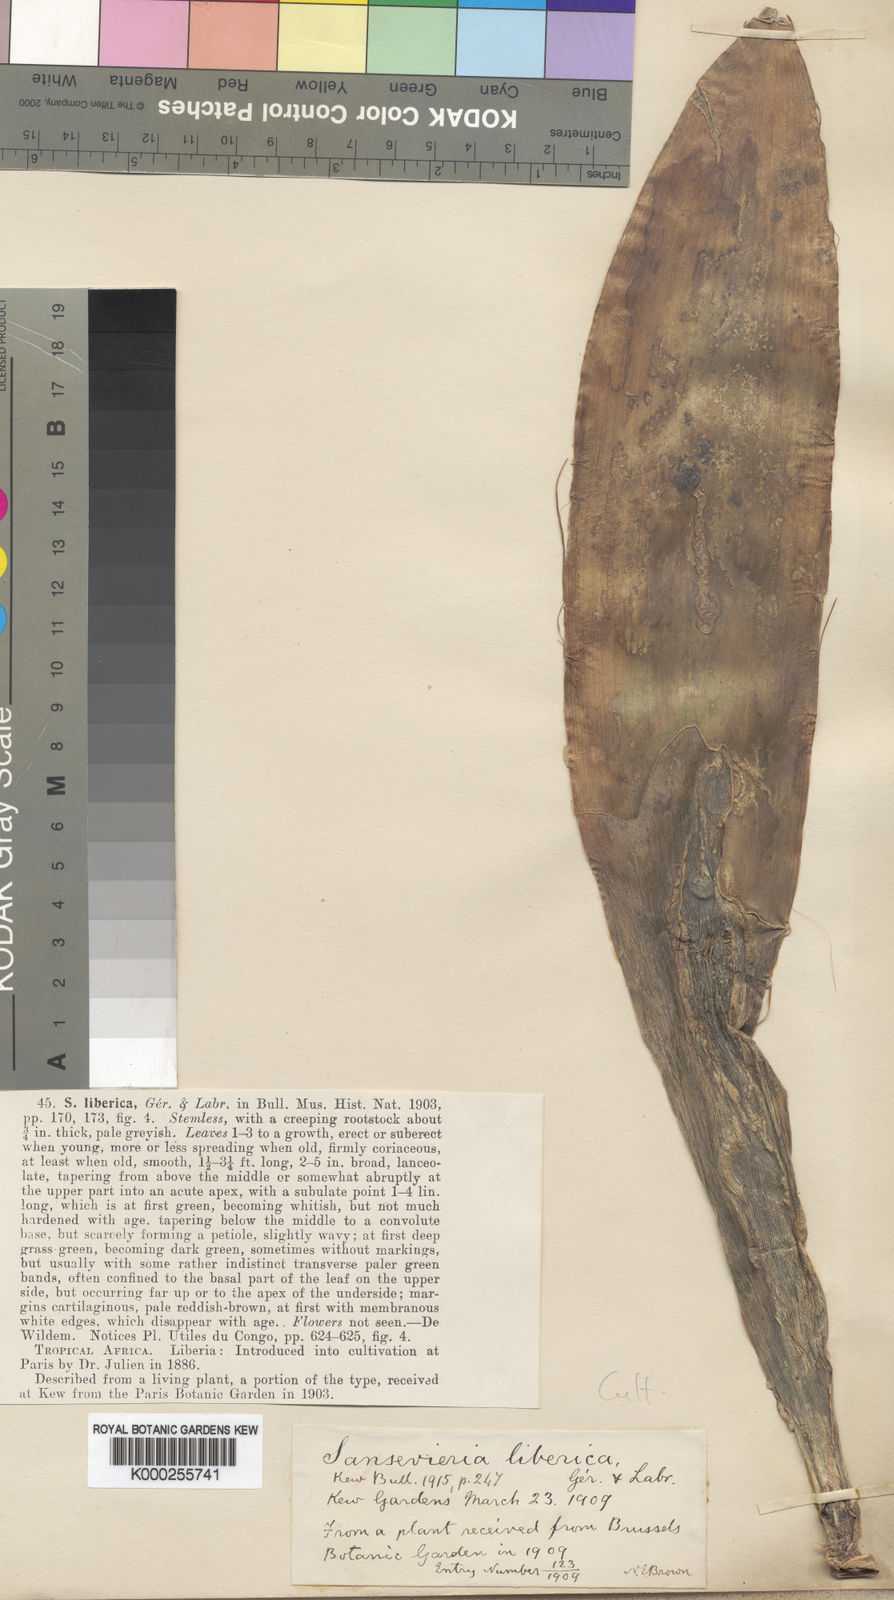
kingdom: Plantae
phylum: Tracheophyta
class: Liliopsida
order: Asparagales
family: Asparagaceae
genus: Dracaena
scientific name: Dracaena liberica
